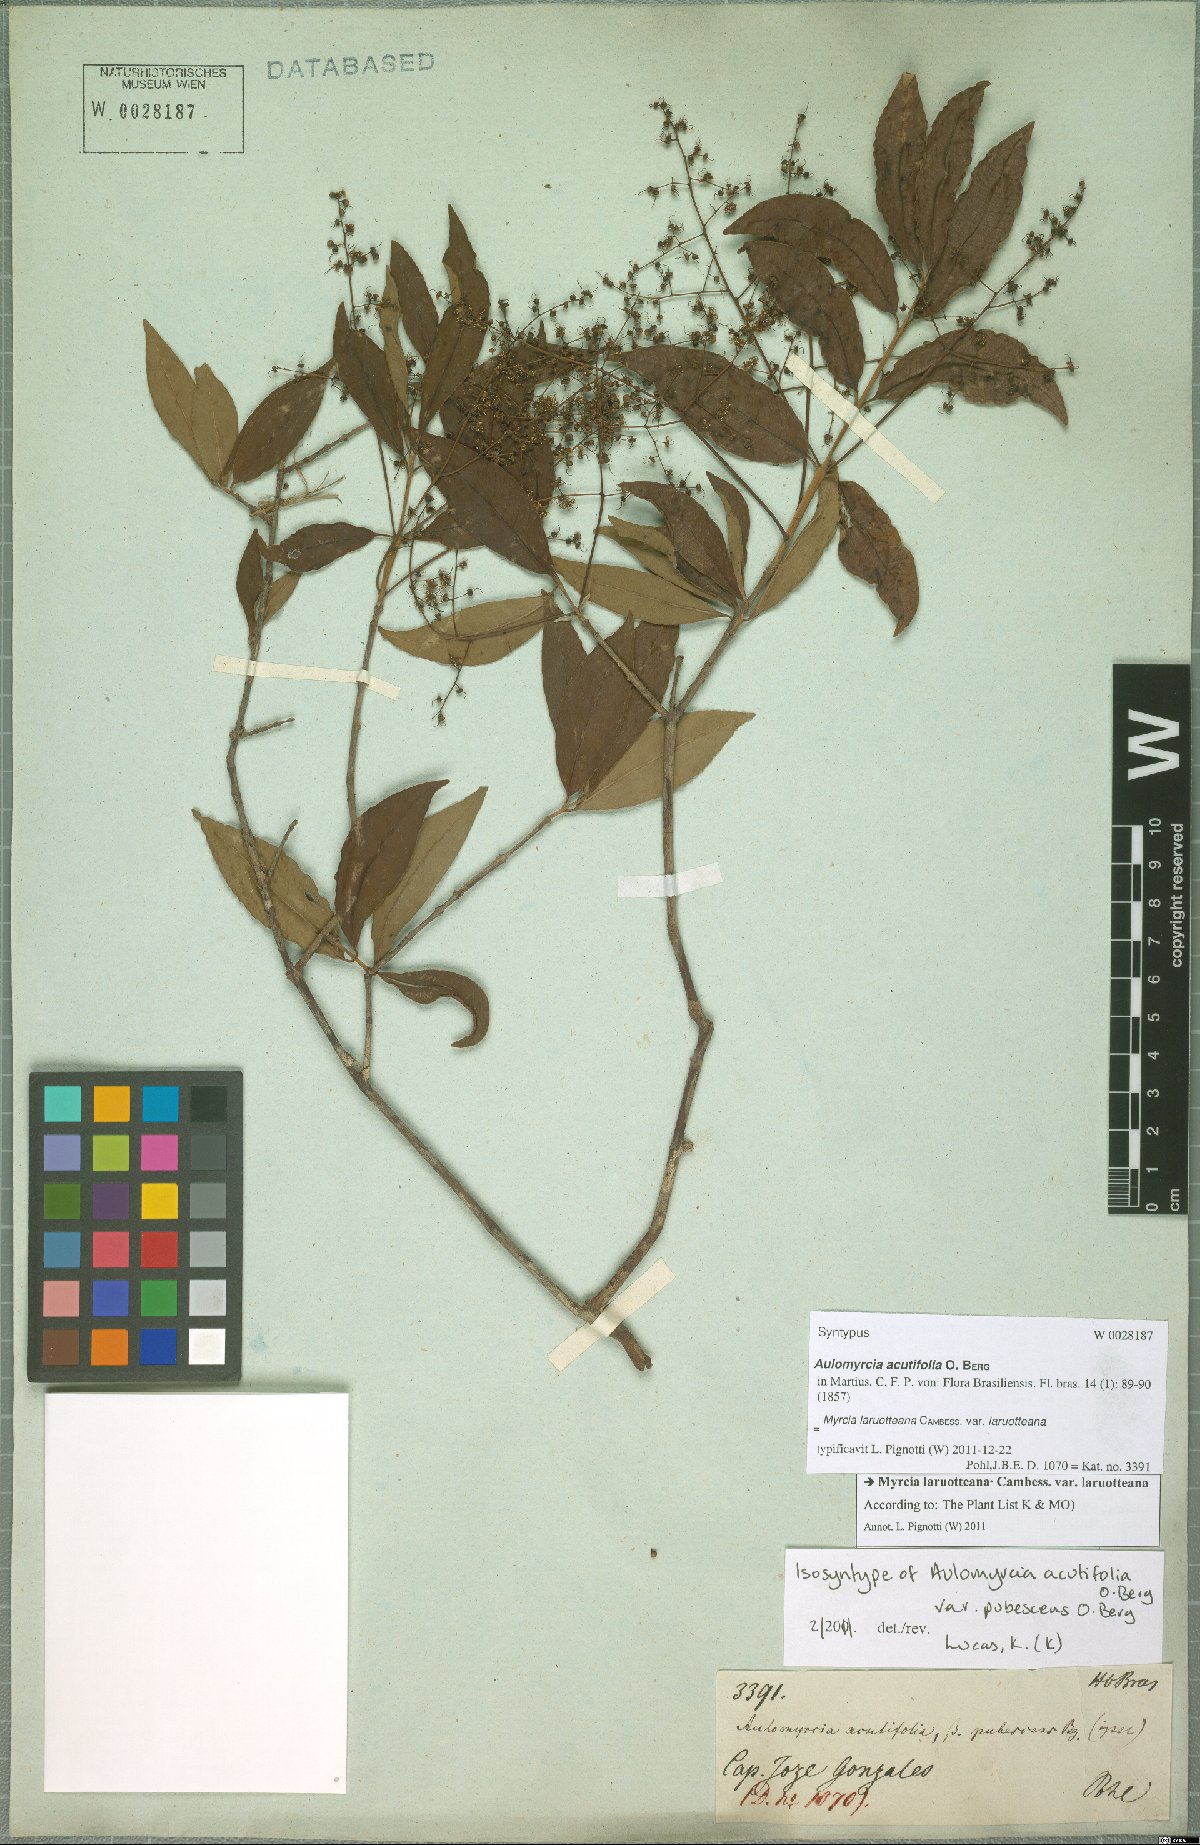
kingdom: Plantae
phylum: Tracheophyta
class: Magnoliopsida
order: Myrtales
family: Myrtaceae
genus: Myrcia
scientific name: Myrcia selloi
